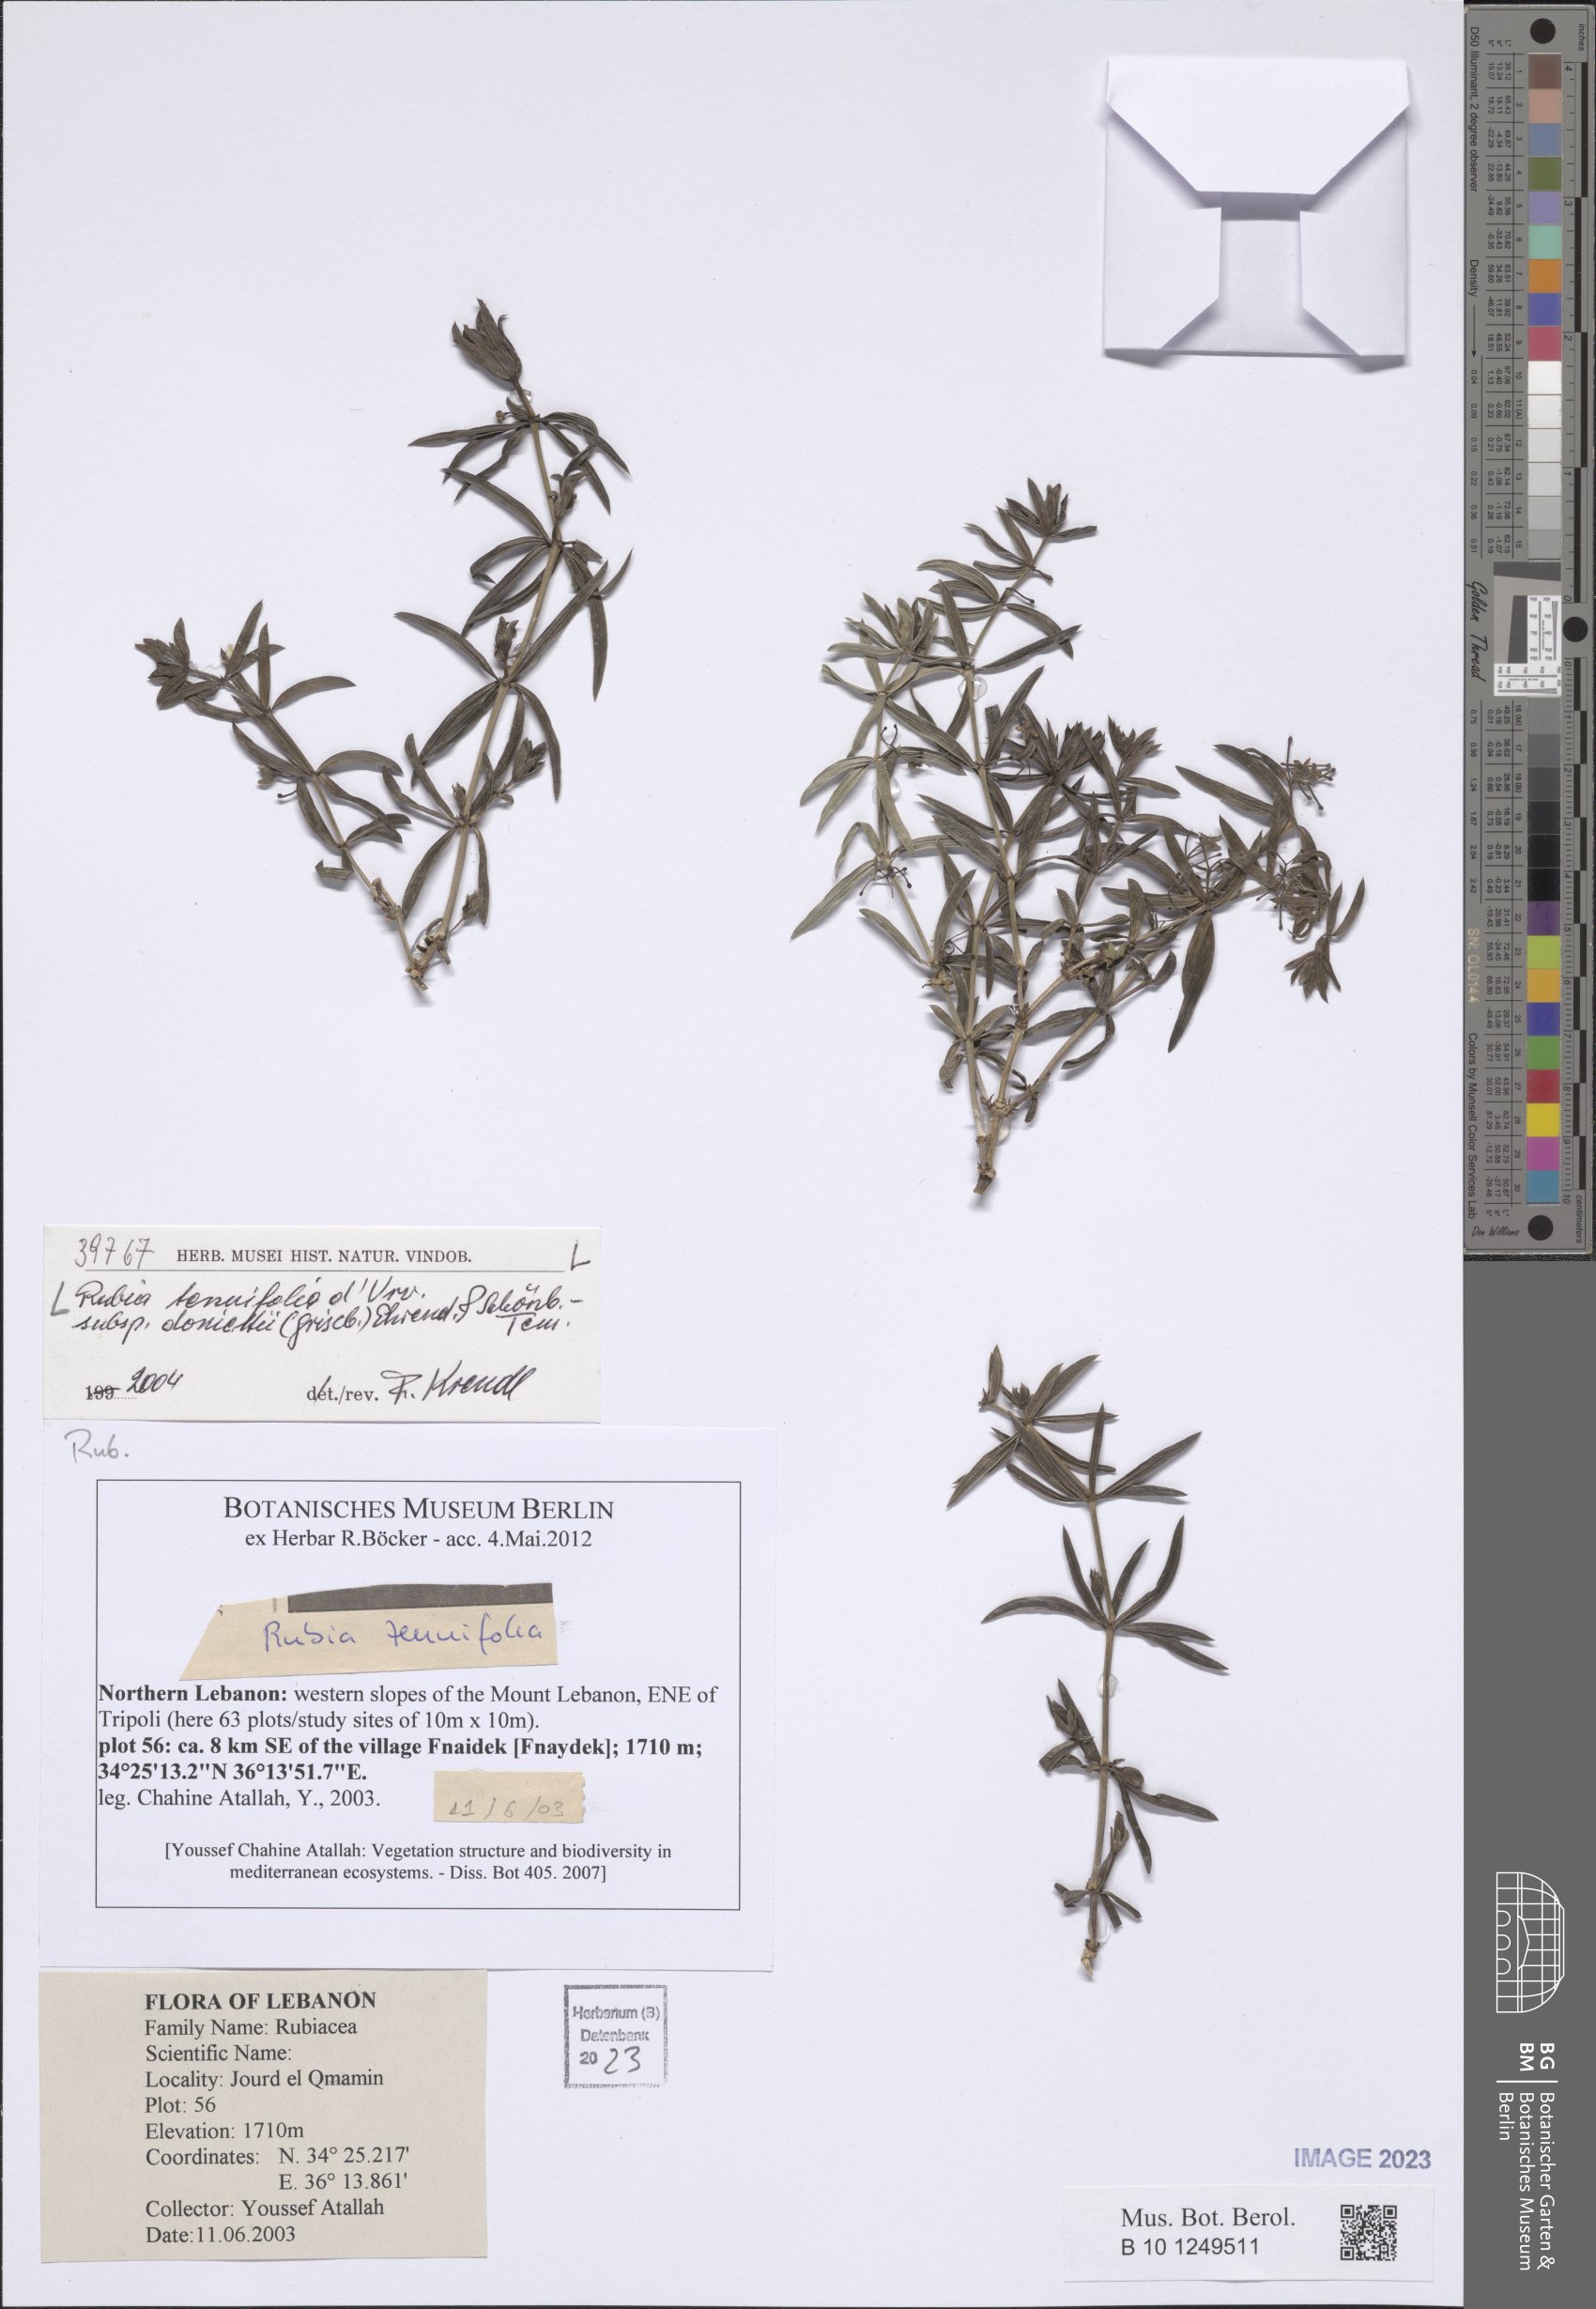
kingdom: Plantae
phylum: Tracheophyta
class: Magnoliopsida
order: Gentianales
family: Rubiaceae
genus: Rubia
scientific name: Rubia tenuifolia
